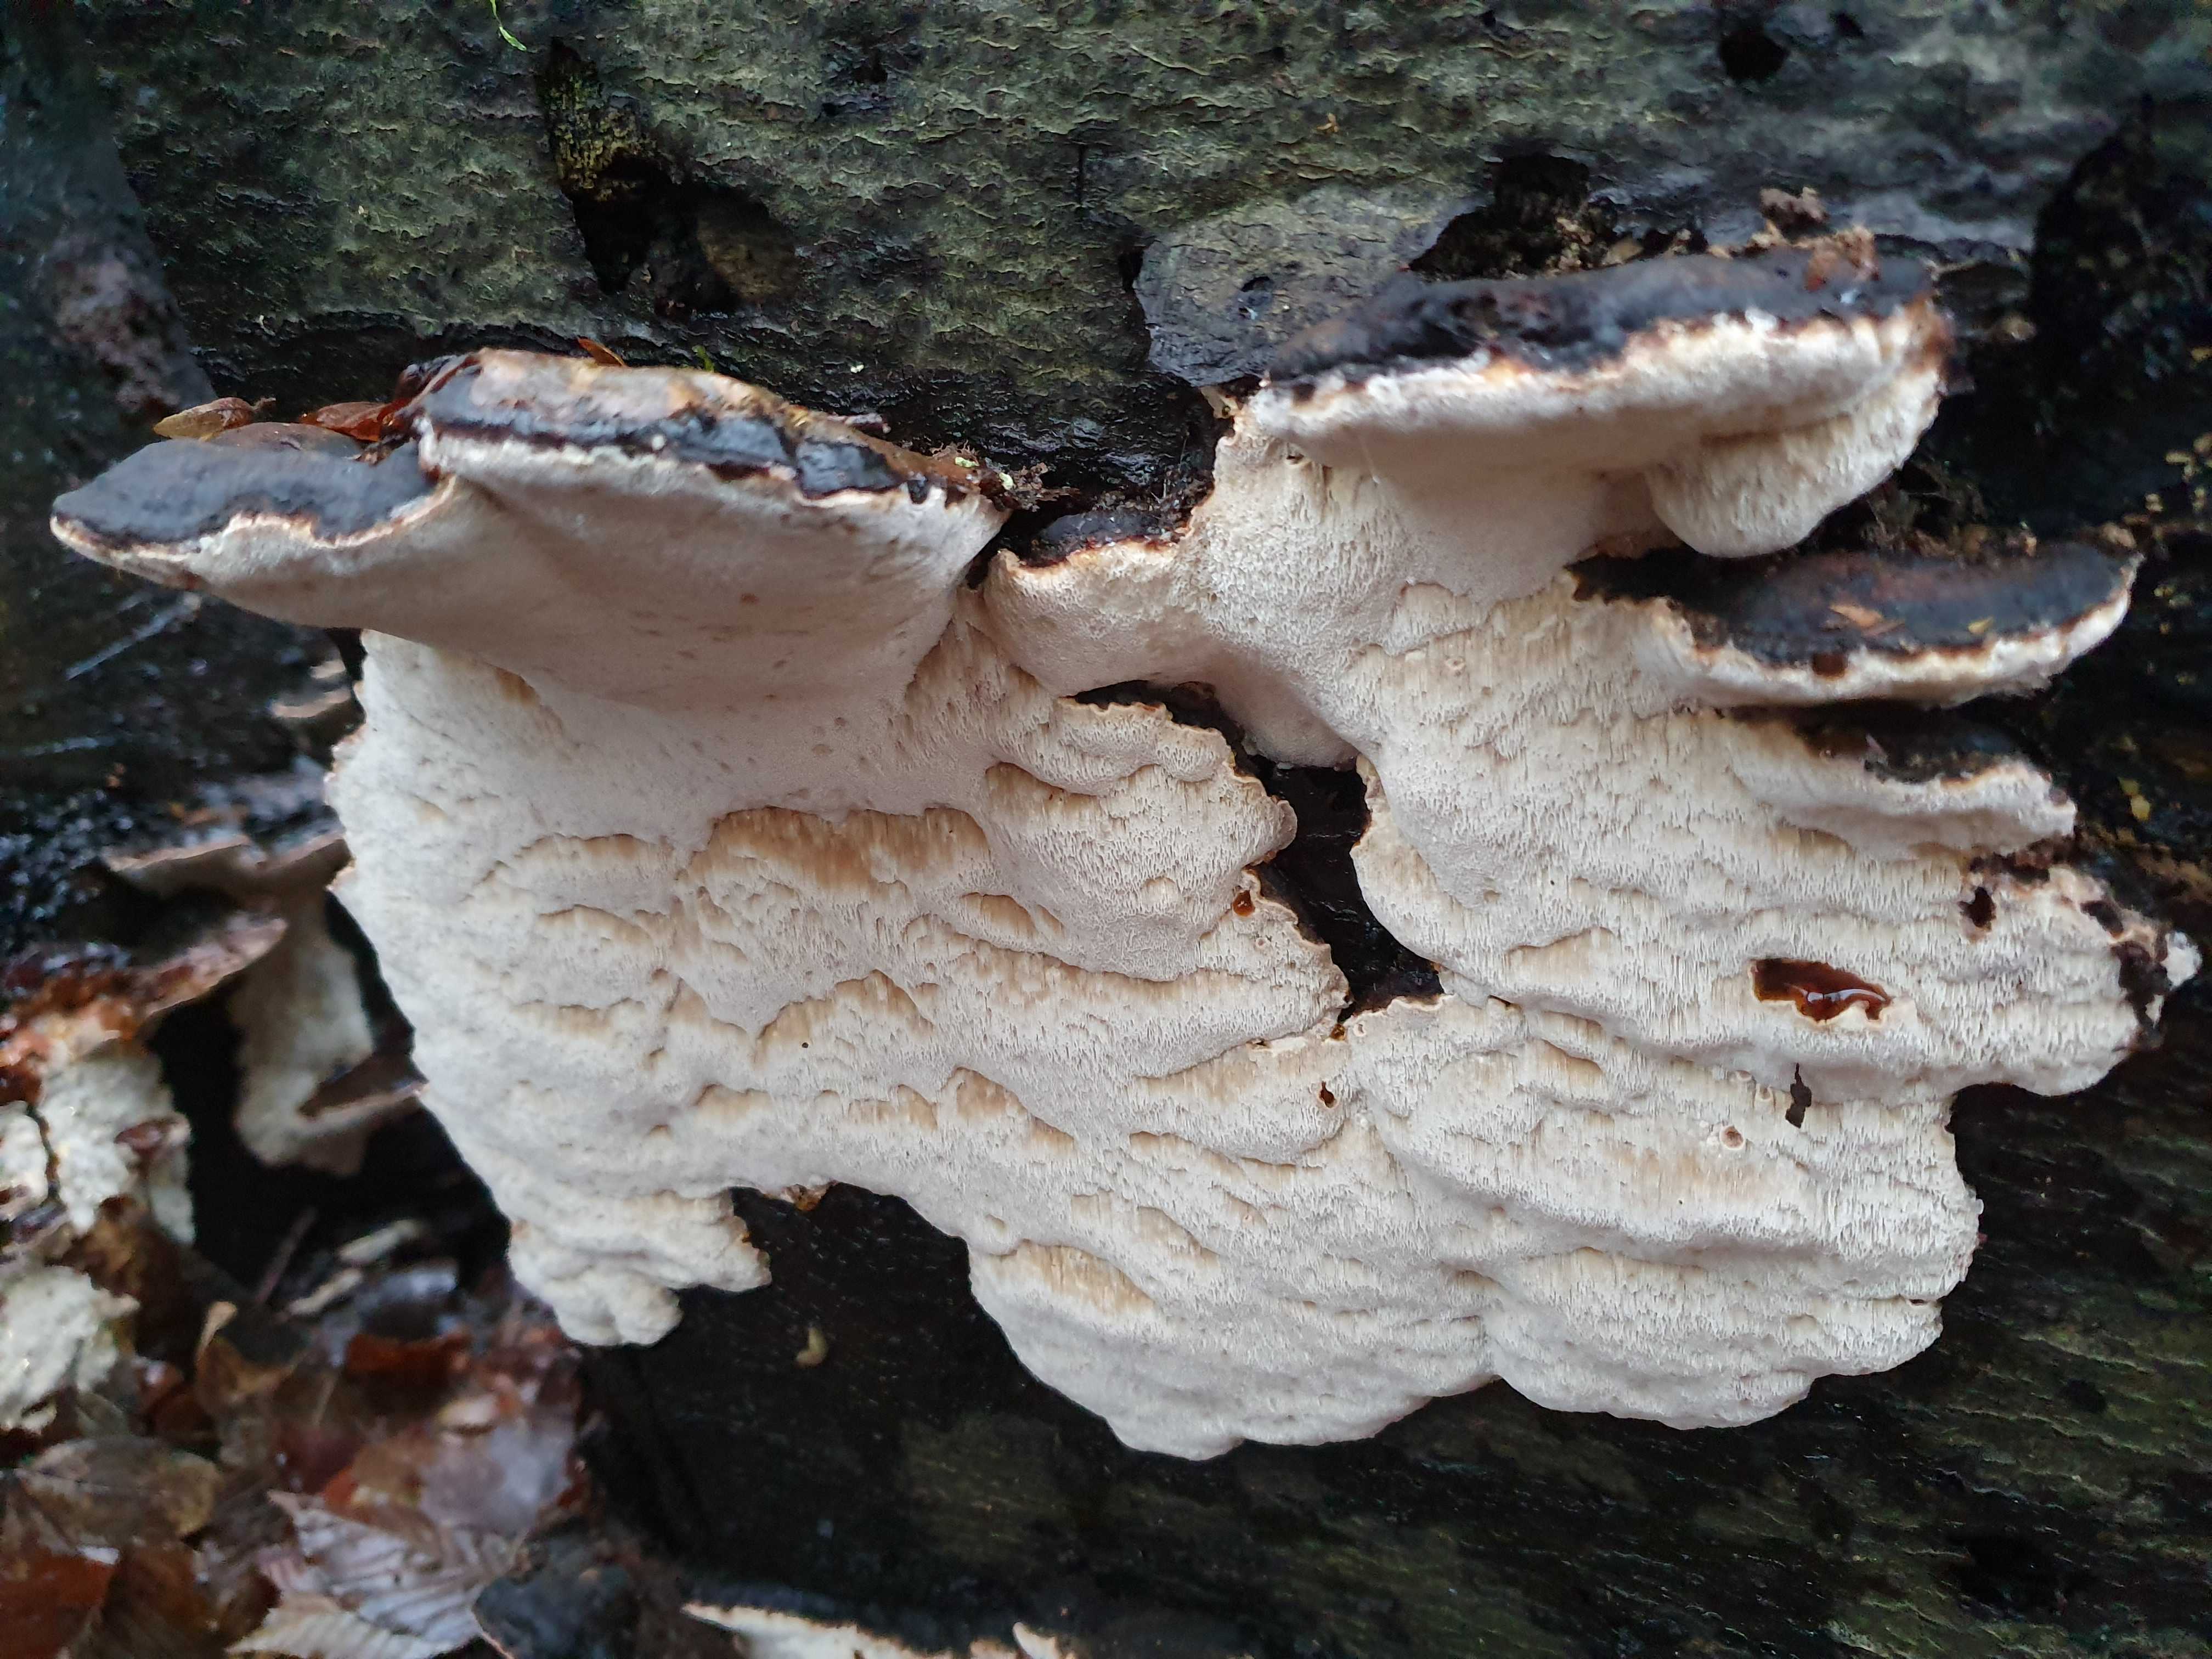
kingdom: Fungi
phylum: Basidiomycota
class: Agaricomycetes
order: Polyporales
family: Ischnodermataceae
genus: Ischnoderma
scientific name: Ischnoderma resinosum
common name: løv-tjæreporesvamp
